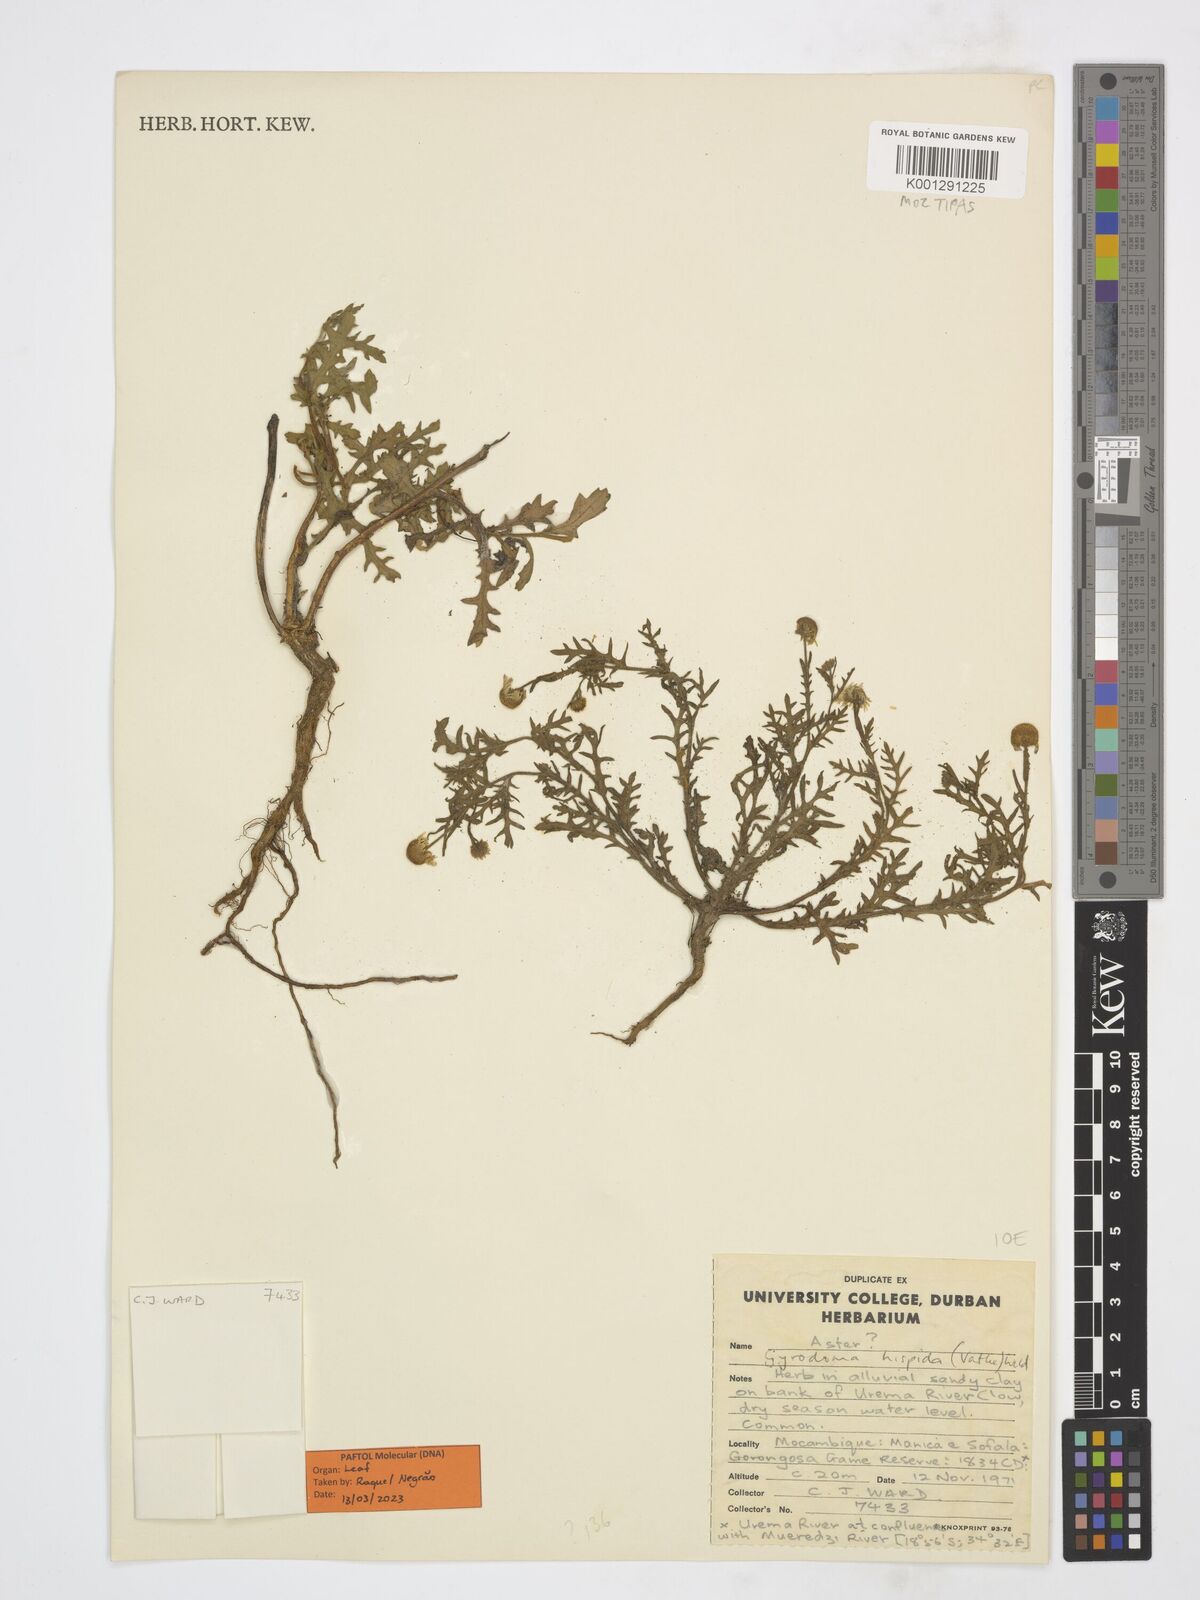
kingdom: Plantae
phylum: Tracheophyta
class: Magnoliopsida
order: Asterales
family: Asteraceae
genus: Gyrodoma
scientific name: Gyrodoma hispida
